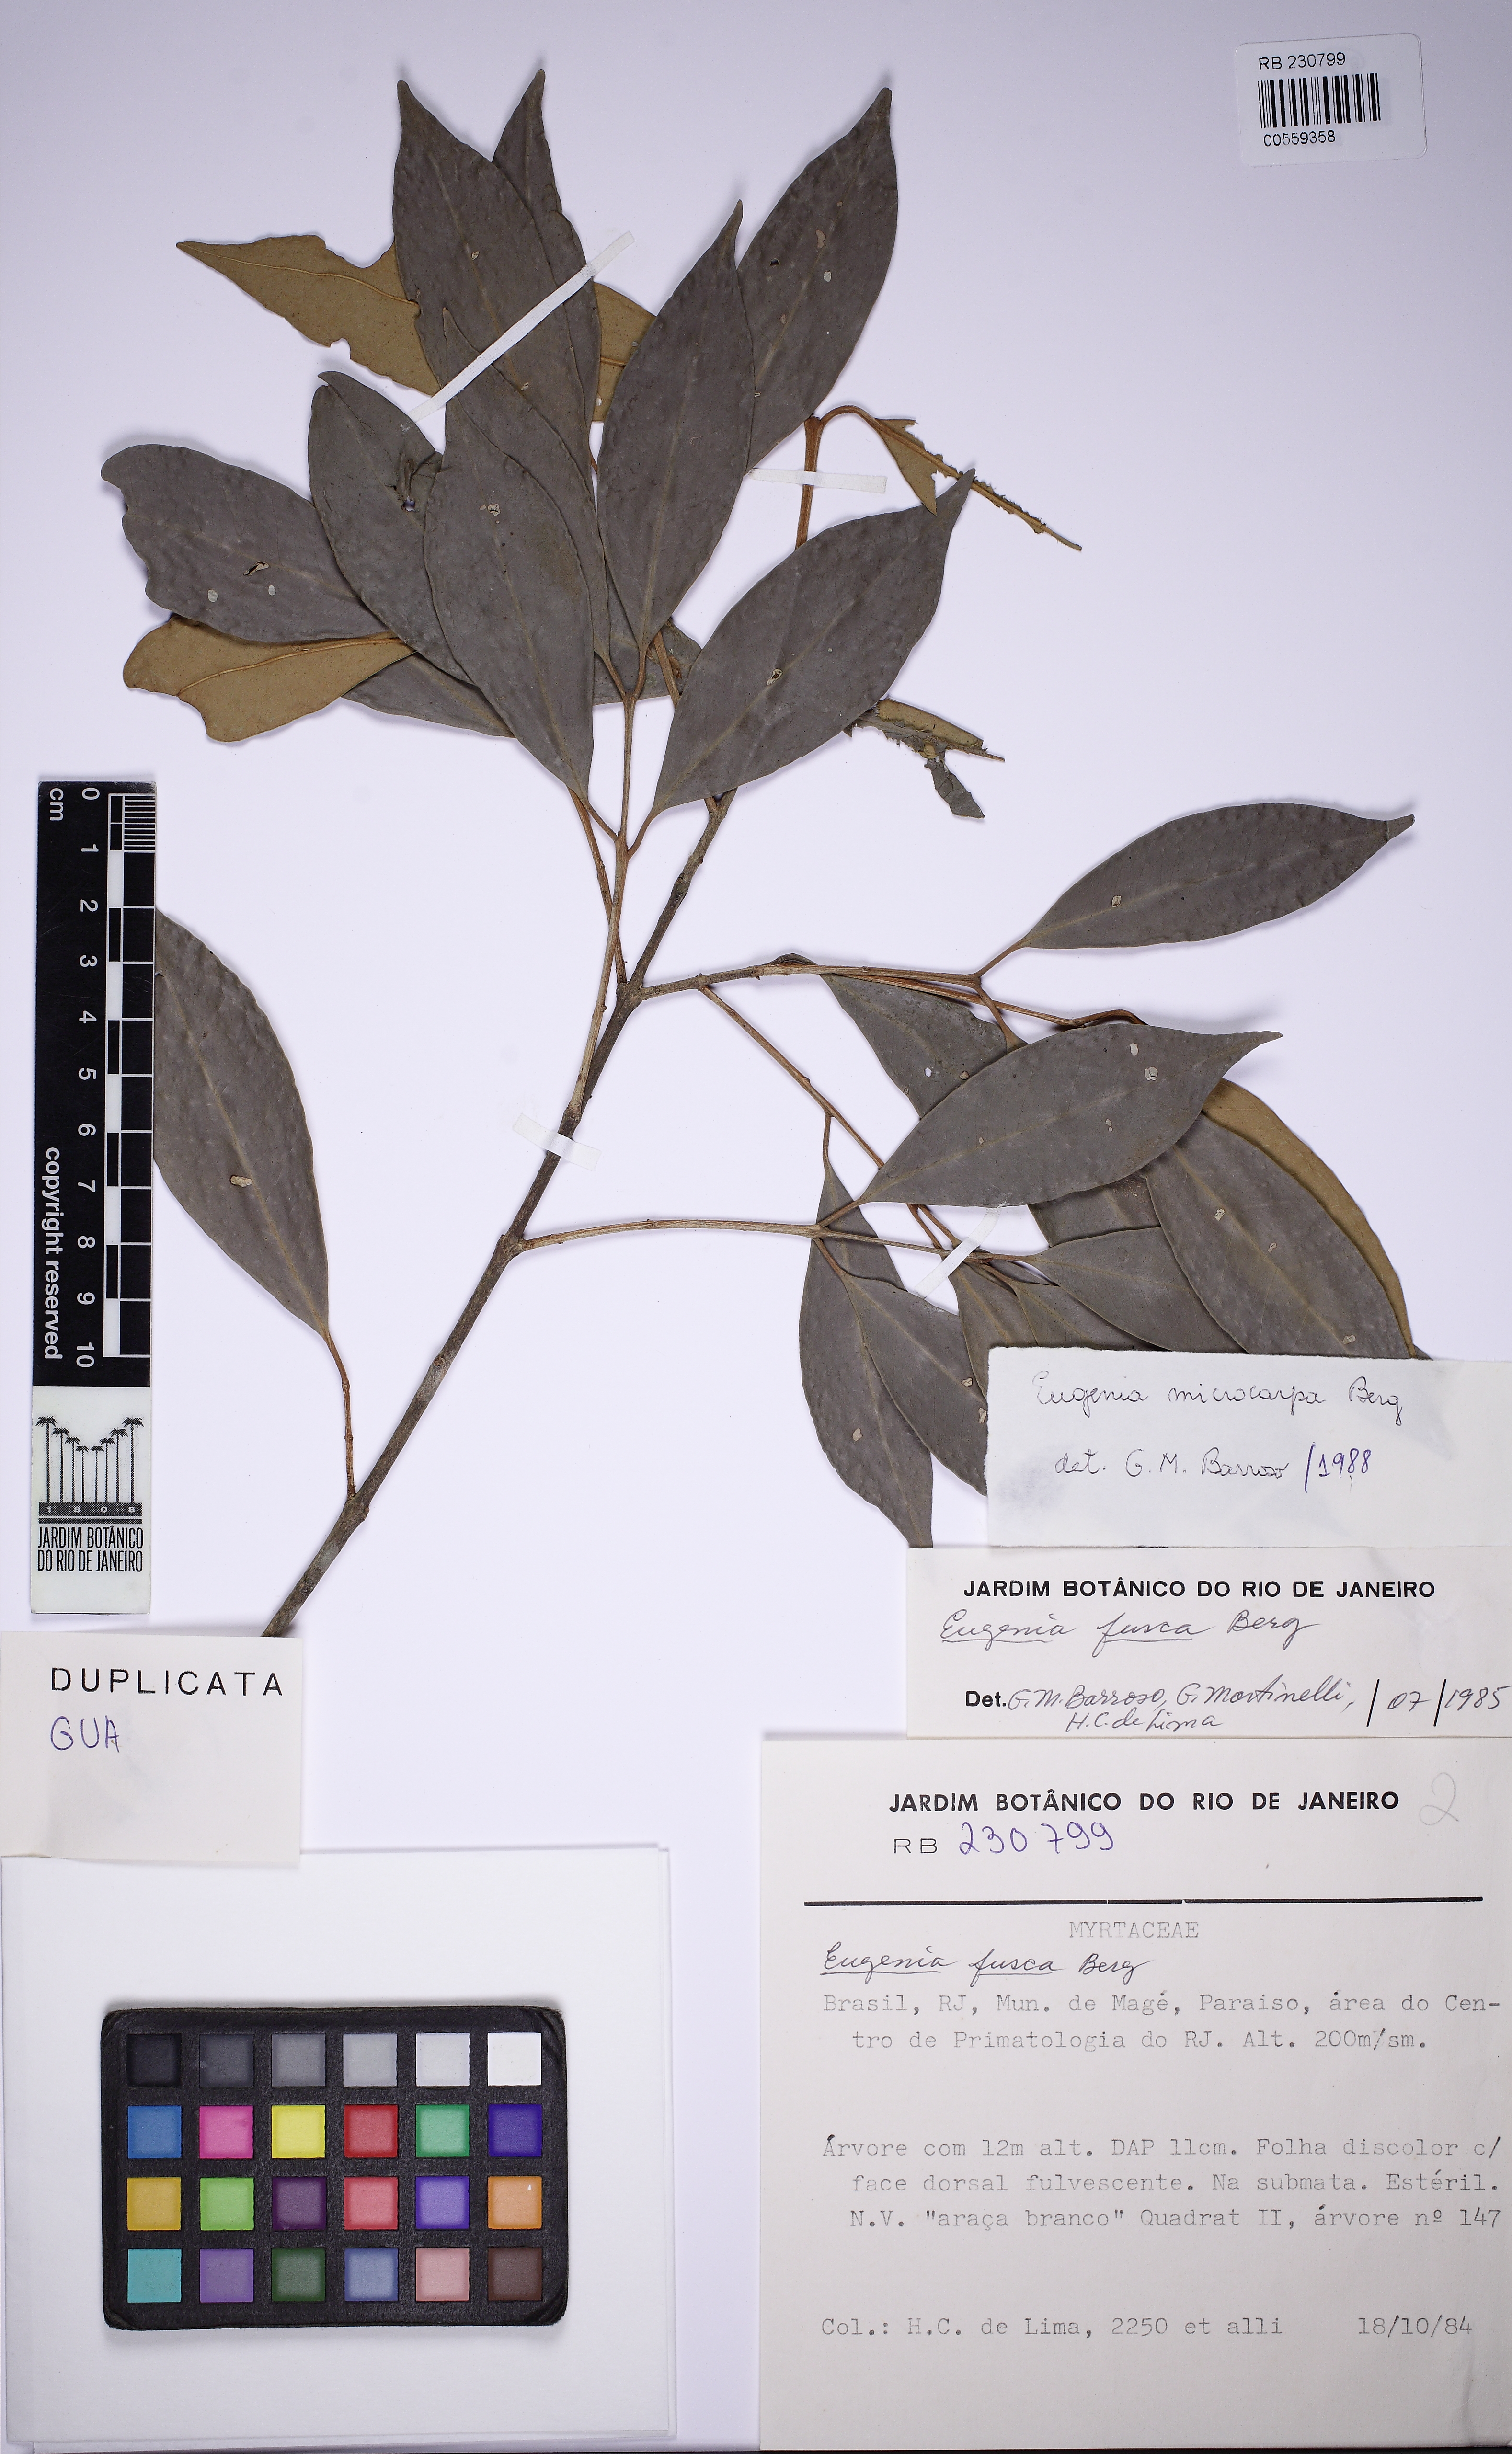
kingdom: Plantae
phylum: Tracheophyta
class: Magnoliopsida
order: Myrtales
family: Myrtaceae
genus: Eugenia
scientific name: Eugenia microcarpa
